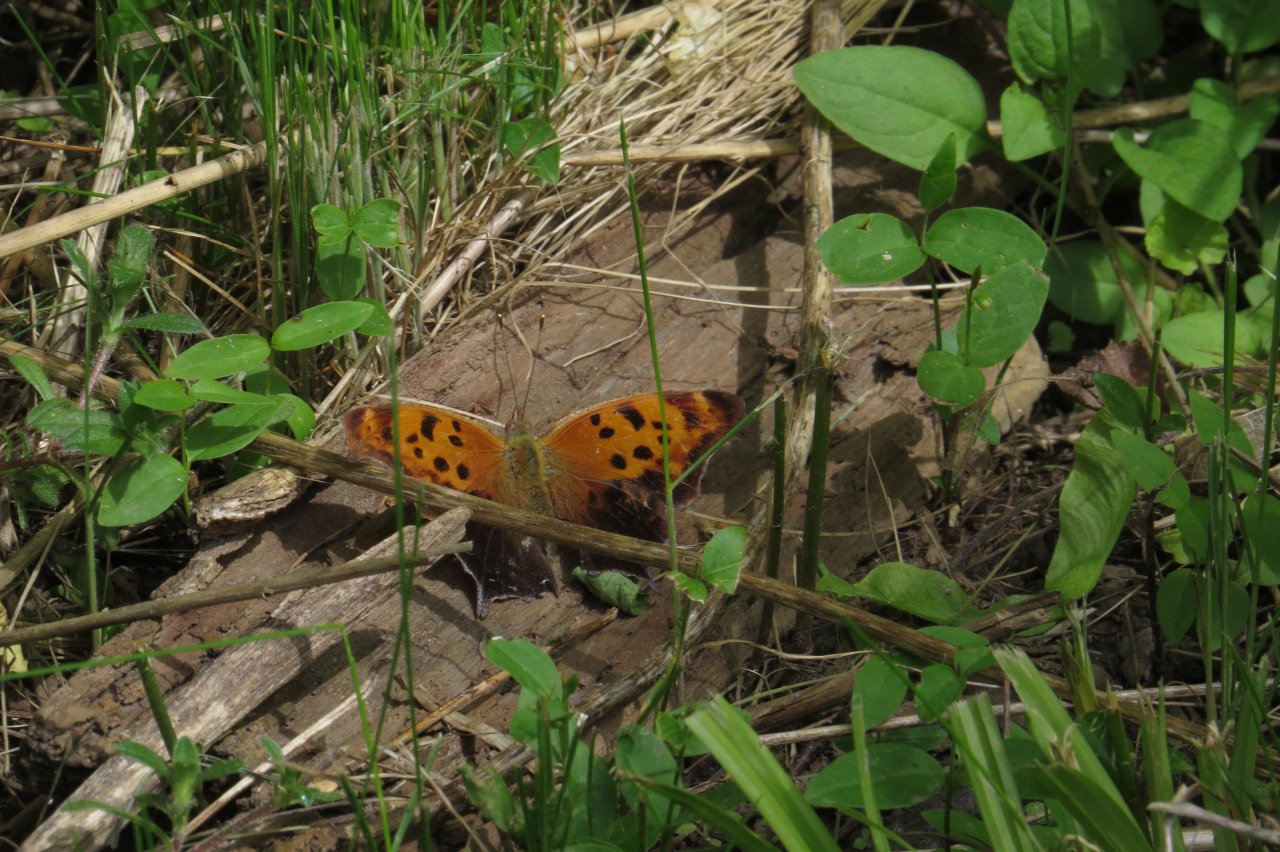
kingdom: Animalia
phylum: Arthropoda
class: Insecta
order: Lepidoptera
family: Nymphalidae
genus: Polygonia
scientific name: Polygonia interrogationis
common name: Question Mark
